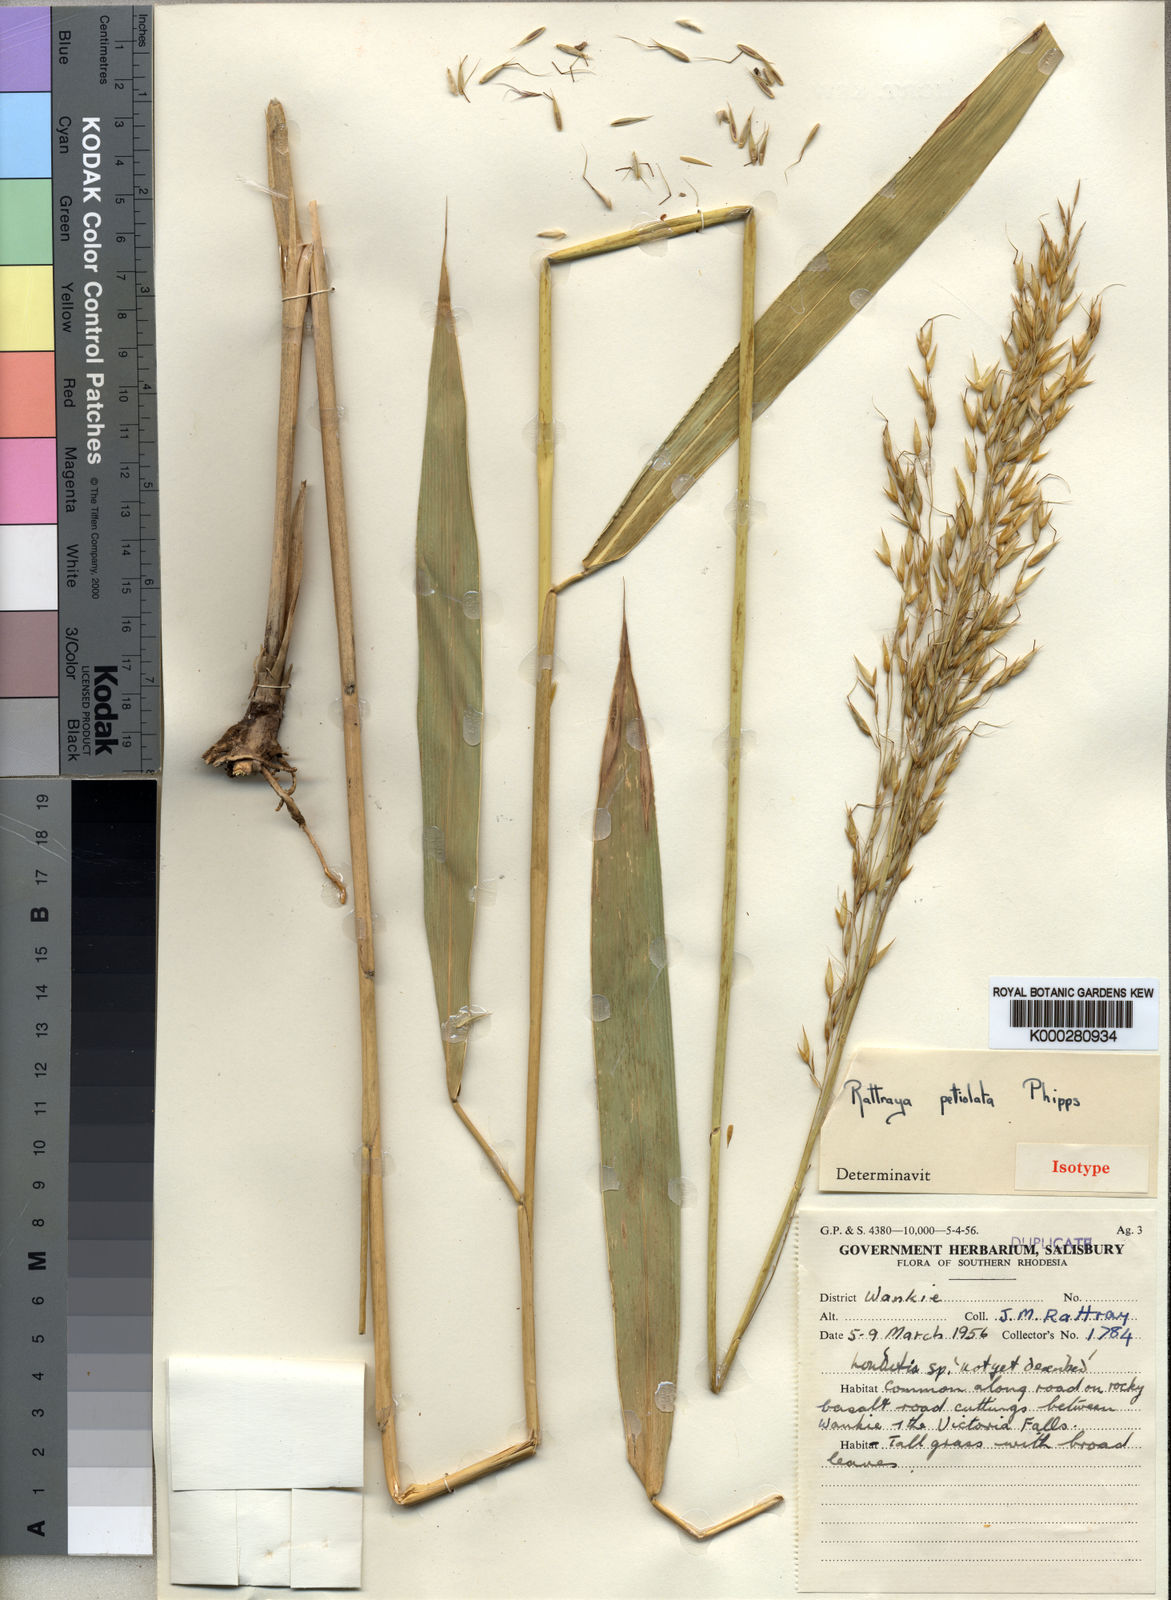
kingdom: Plantae
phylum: Tracheophyta
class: Liliopsida
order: Poales
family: Poaceae
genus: Danthoniopsis
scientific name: Danthoniopsis petiolata
